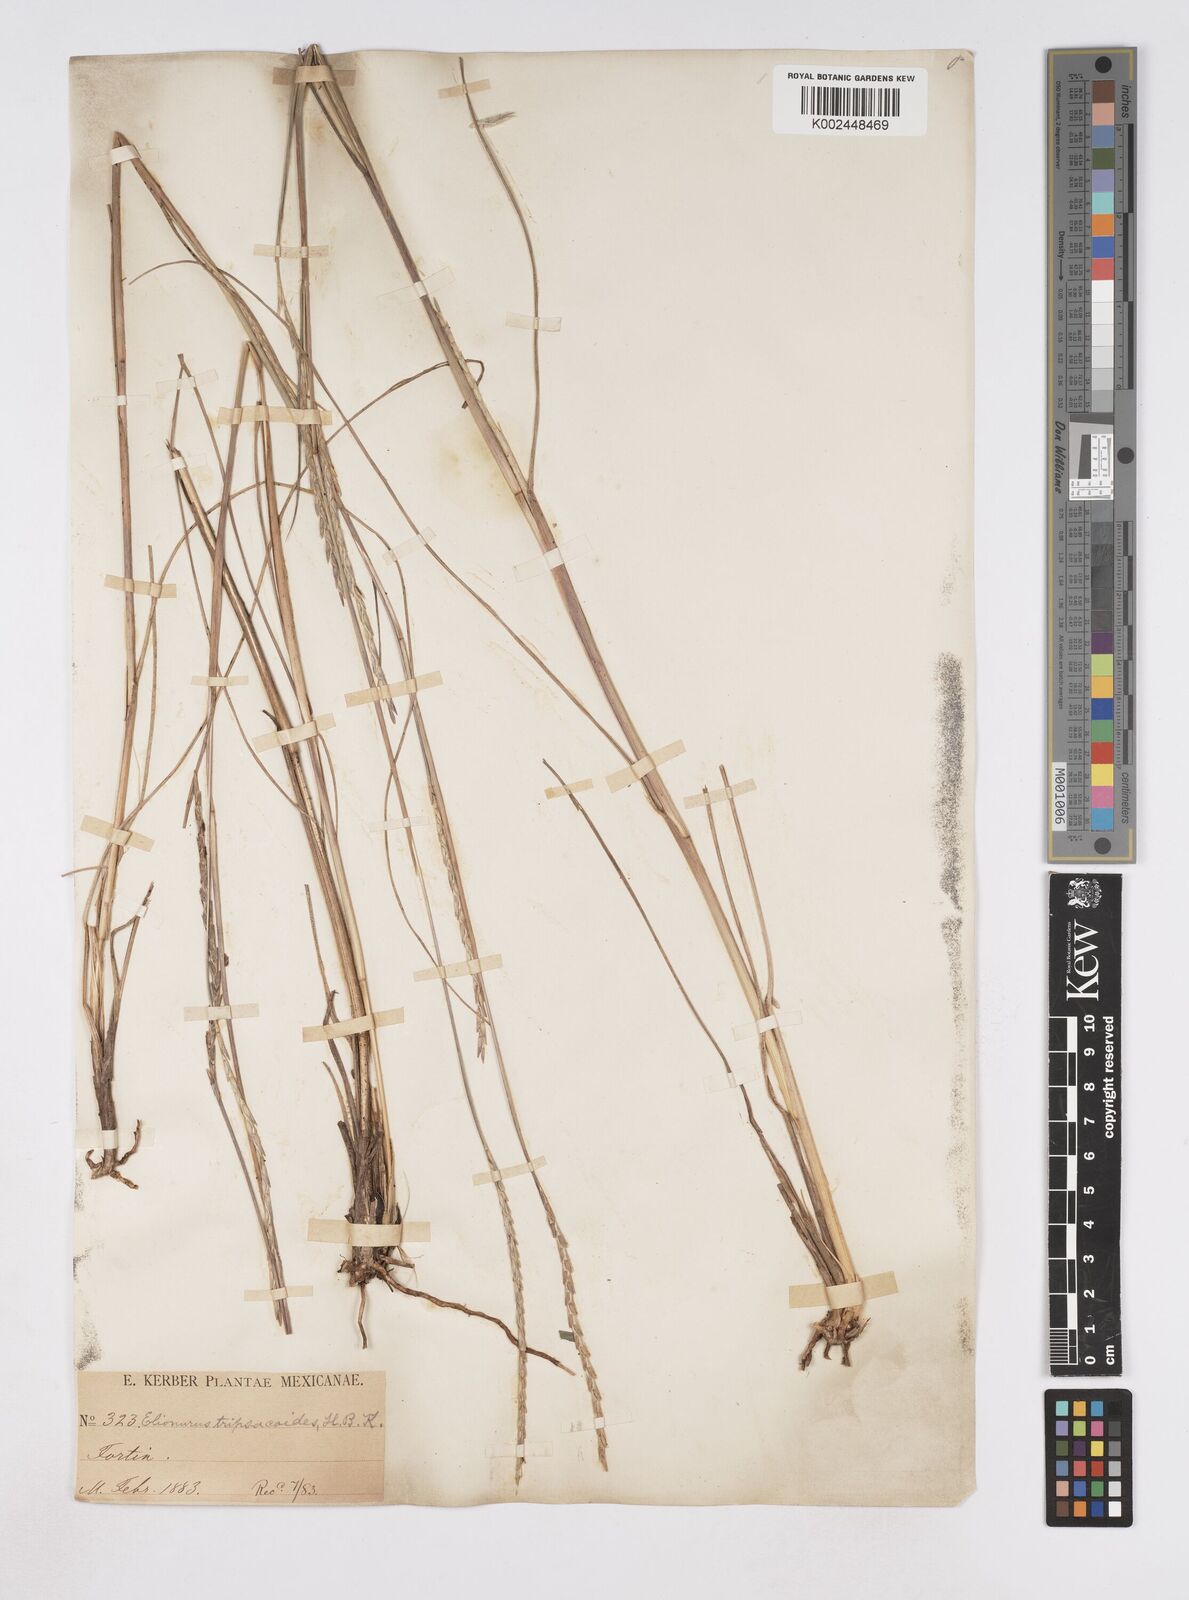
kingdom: Plantae
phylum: Tracheophyta
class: Liliopsida
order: Poales
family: Poaceae
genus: Elionurus
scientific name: Elionurus ciliaris
